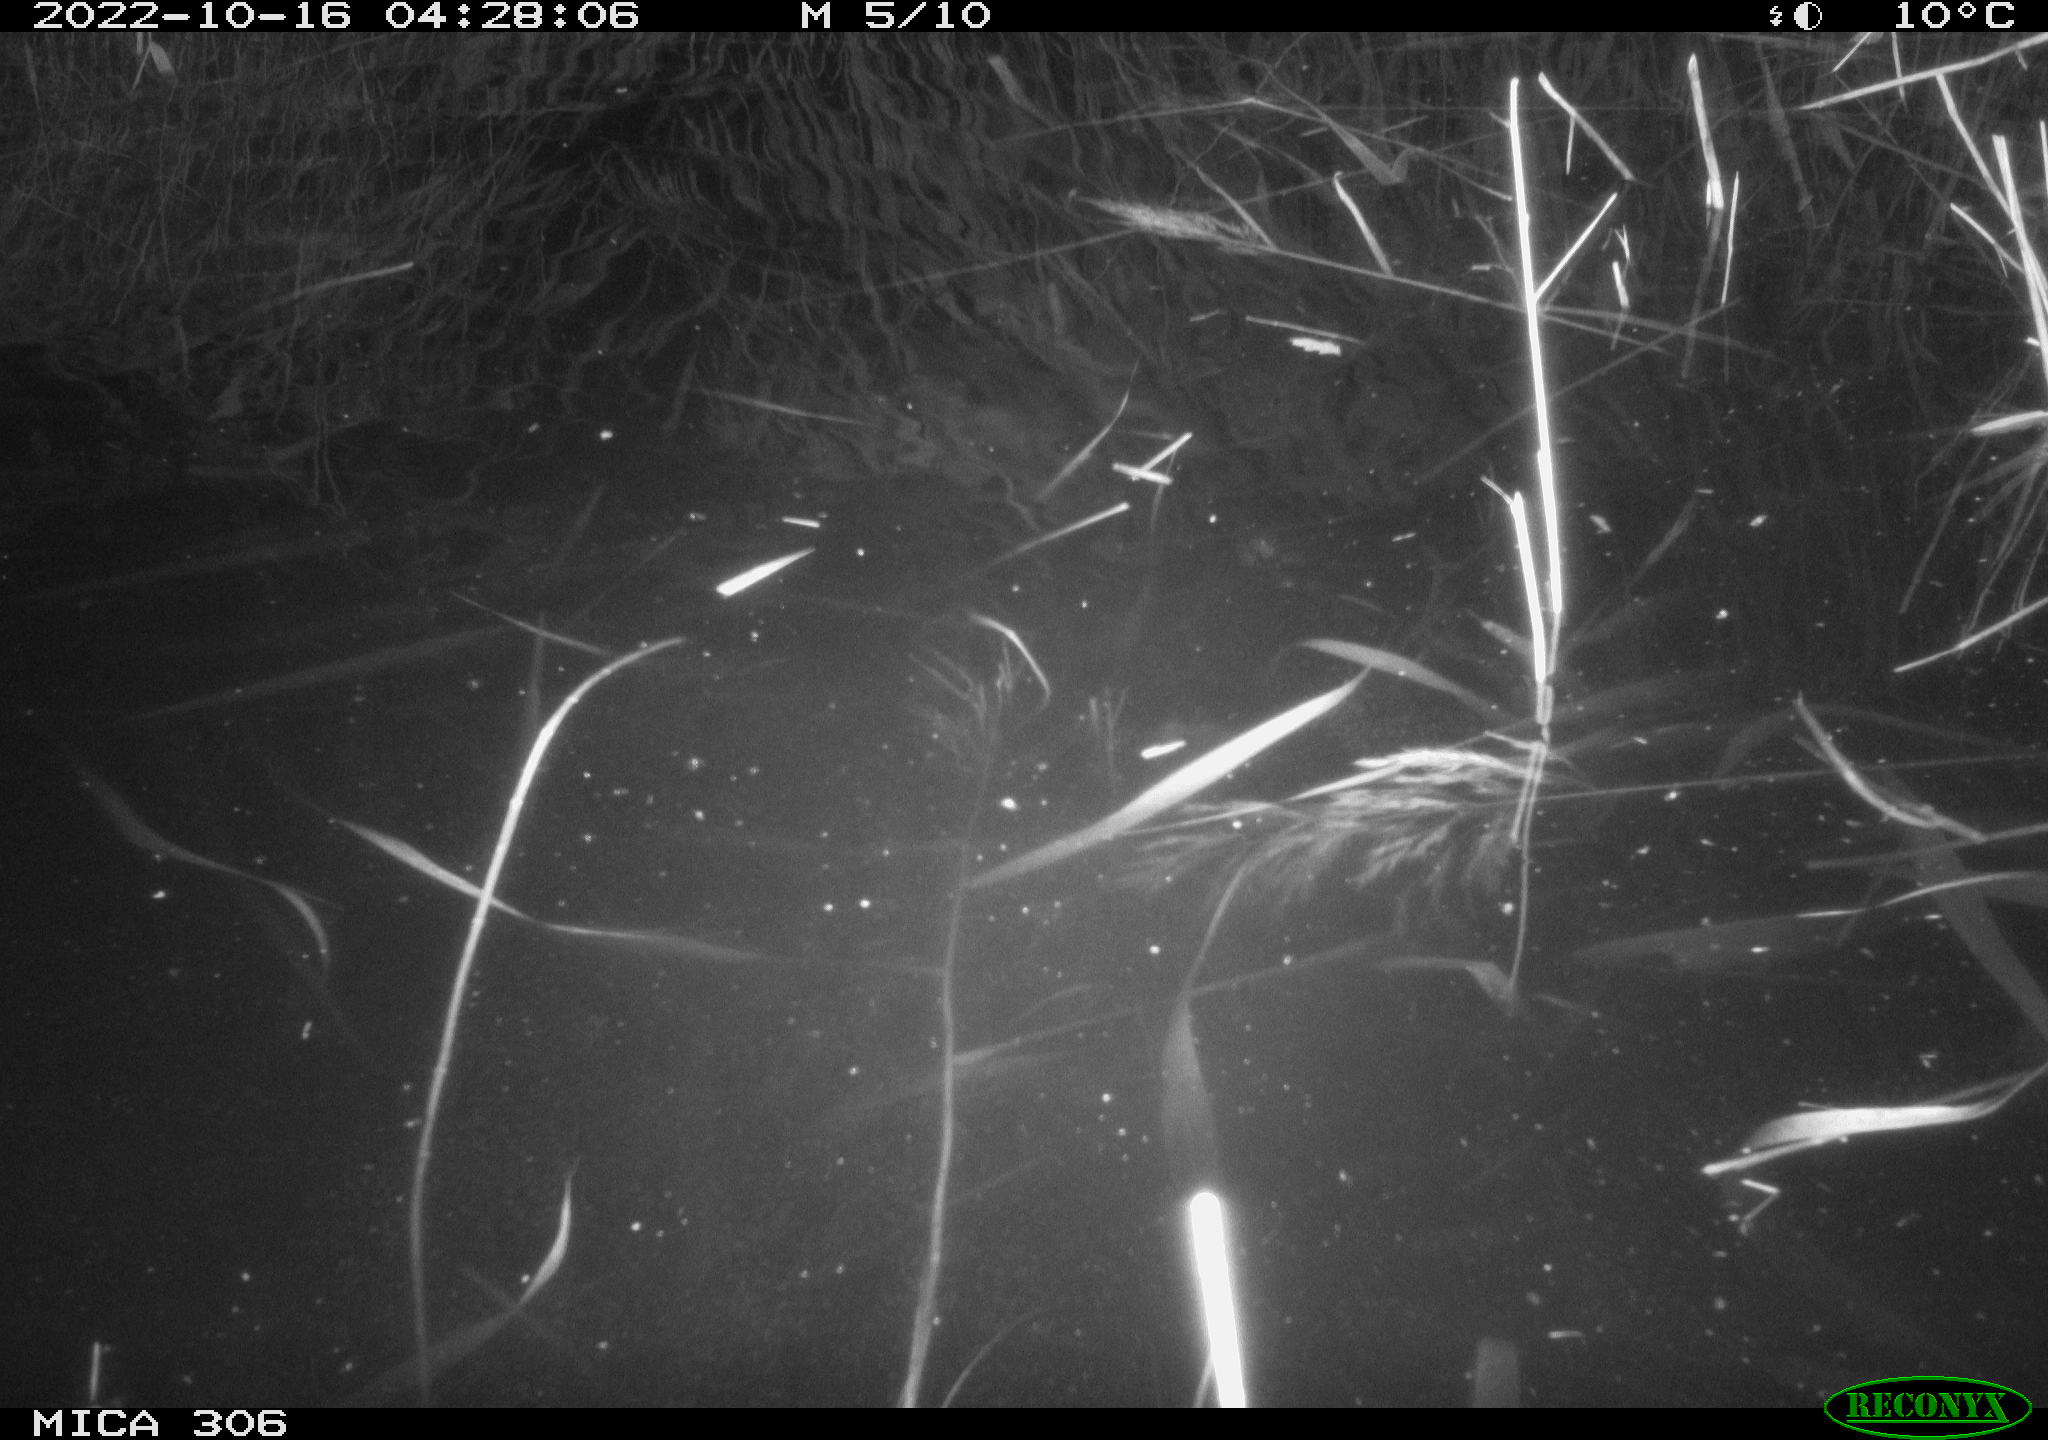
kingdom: Animalia
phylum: Chordata
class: Mammalia
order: Rodentia
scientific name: Rodentia
